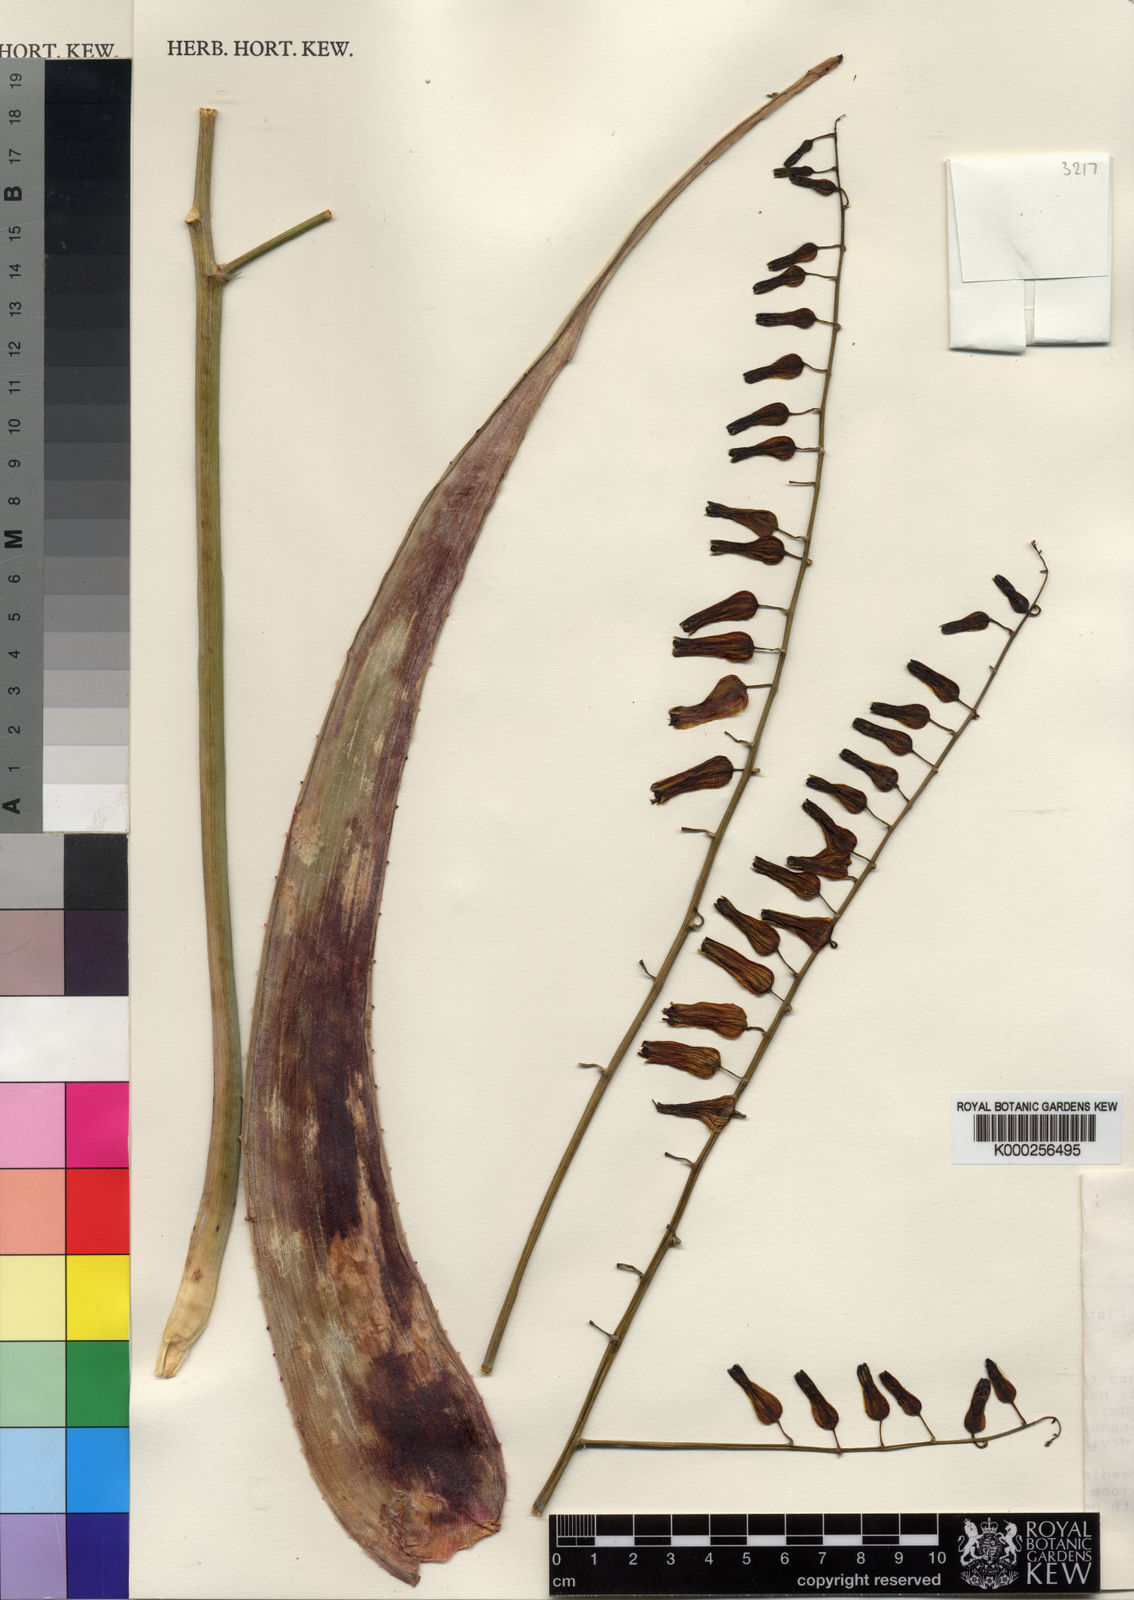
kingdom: Plantae
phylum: Tracheophyta
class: Liliopsida
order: Asparagales
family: Asphodelaceae
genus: Aloe
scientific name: Aloe amicorum
